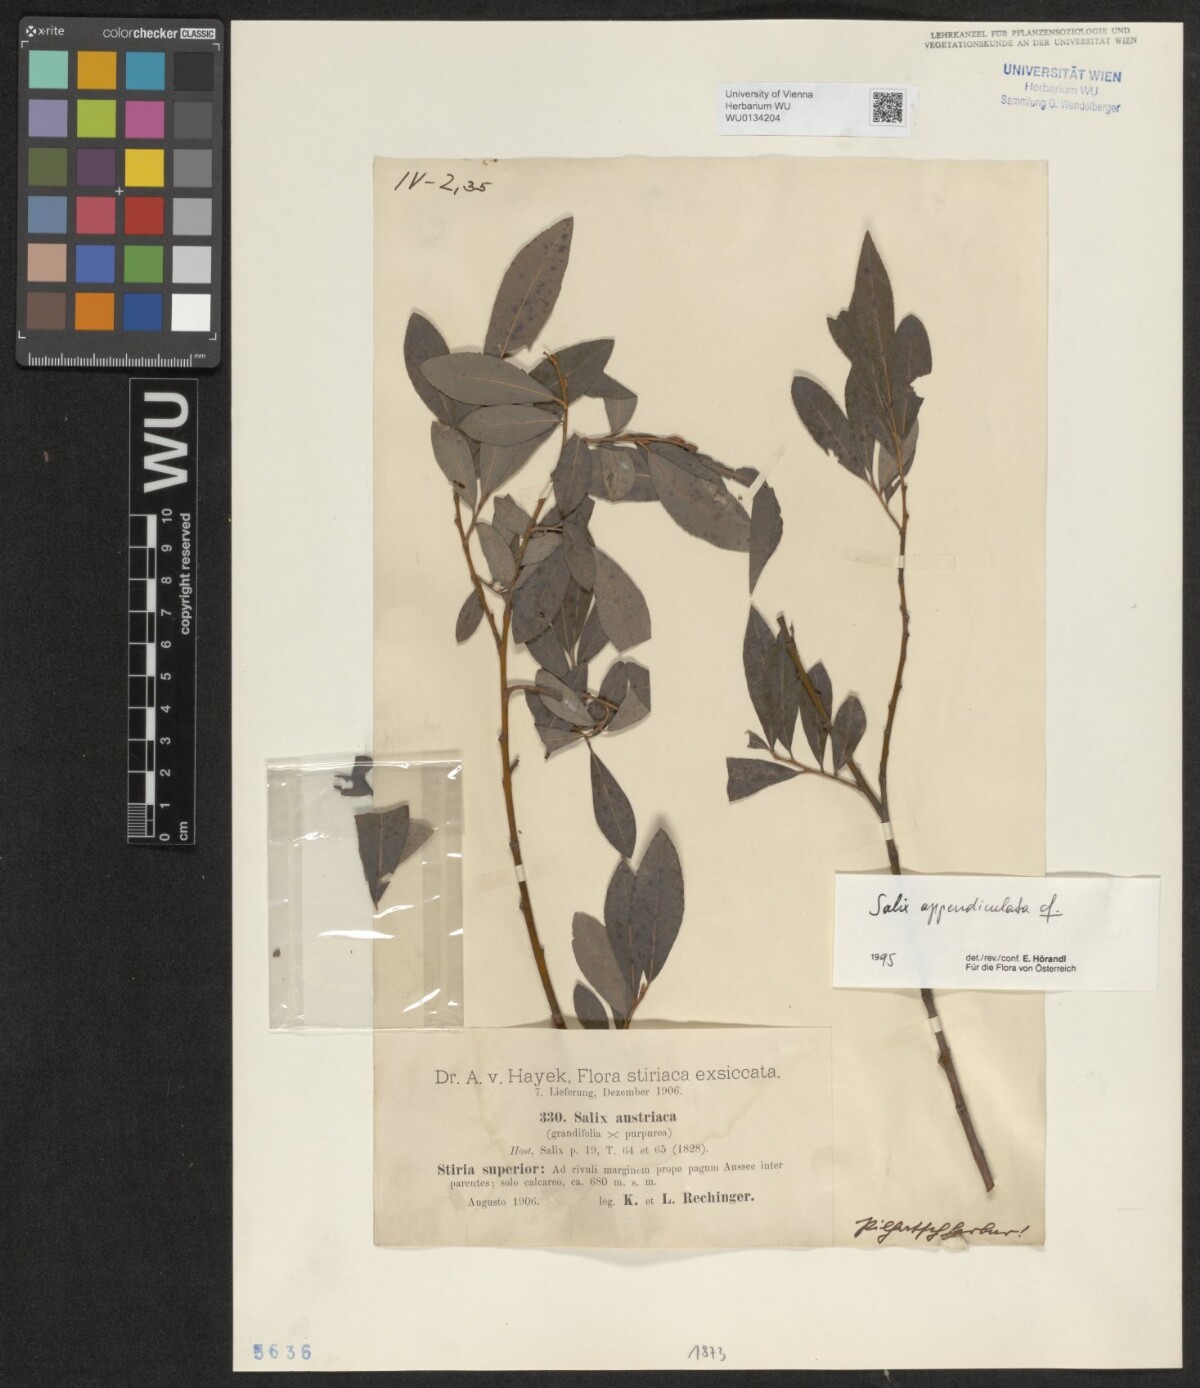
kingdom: Plantae
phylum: Tracheophyta
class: Magnoliopsida
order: Malpighiales
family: Salicaceae
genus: Salix
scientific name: Salix appendiculata
